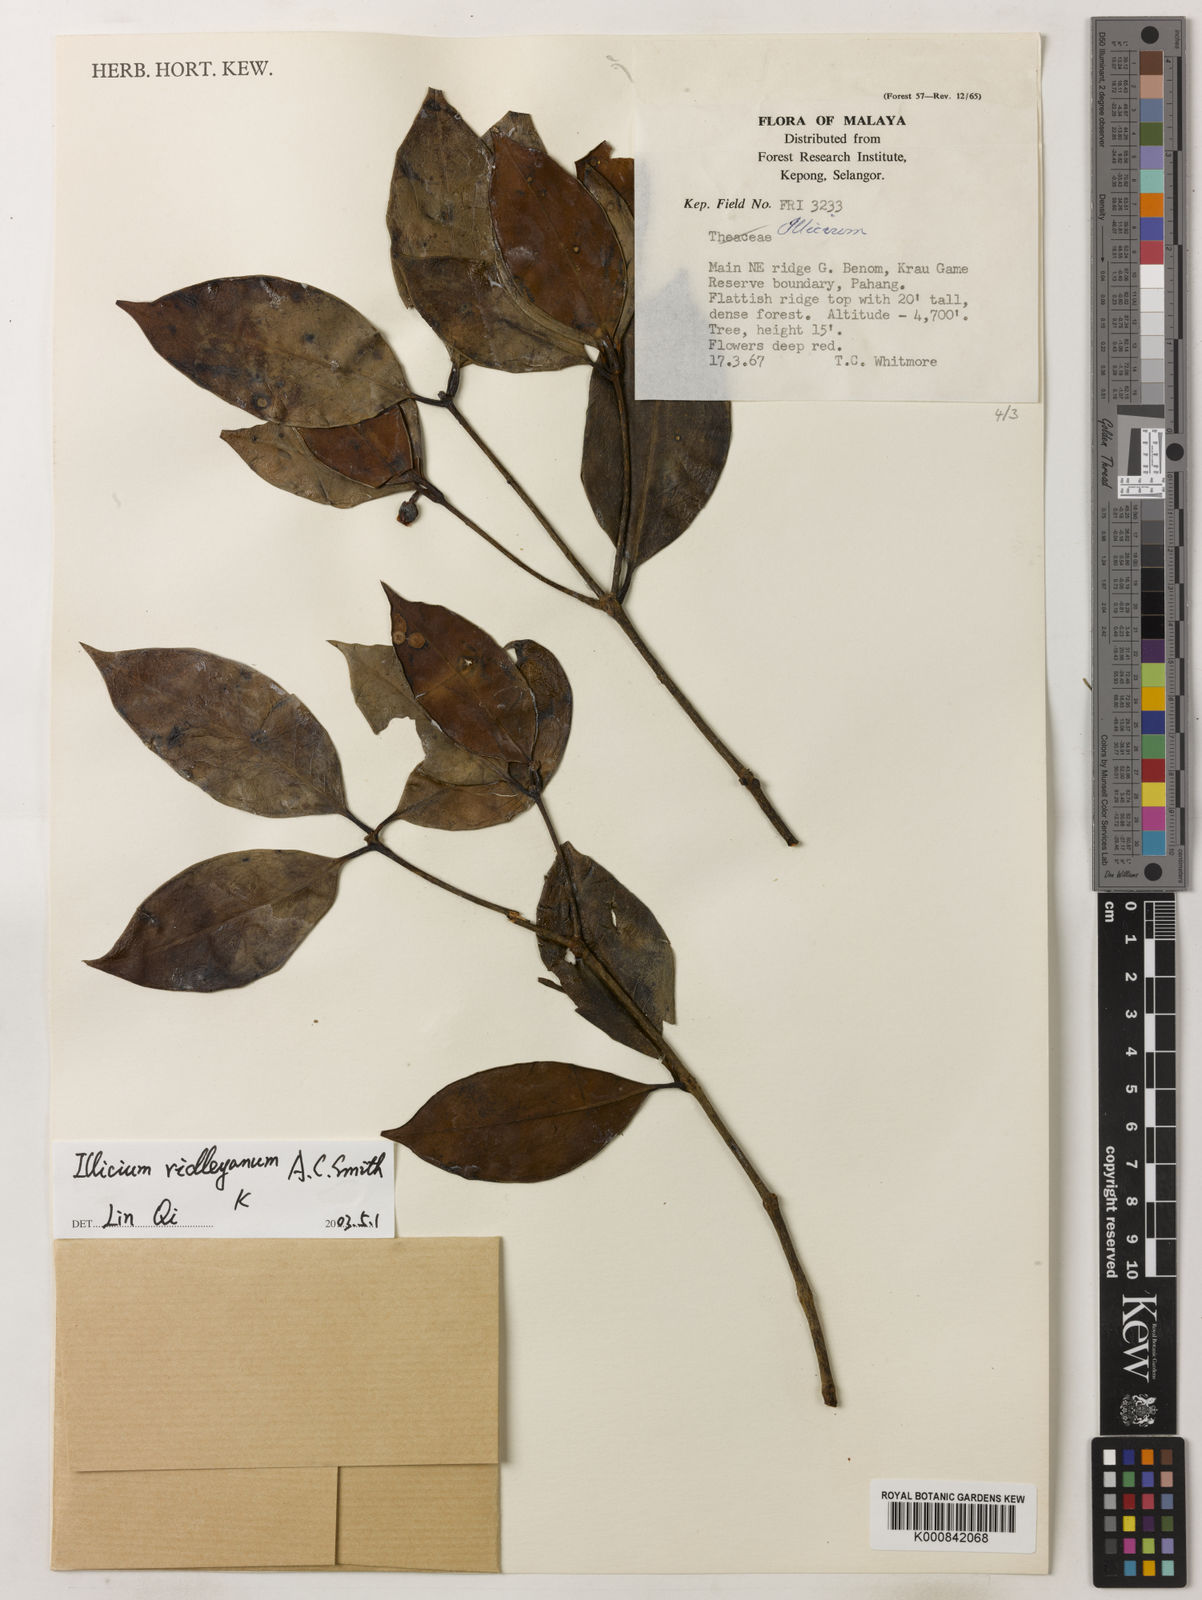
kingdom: Plantae
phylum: Tracheophyta
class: Magnoliopsida
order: Austrobaileyales
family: Schisandraceae
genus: Illicium
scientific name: Illicium ridleyanum
